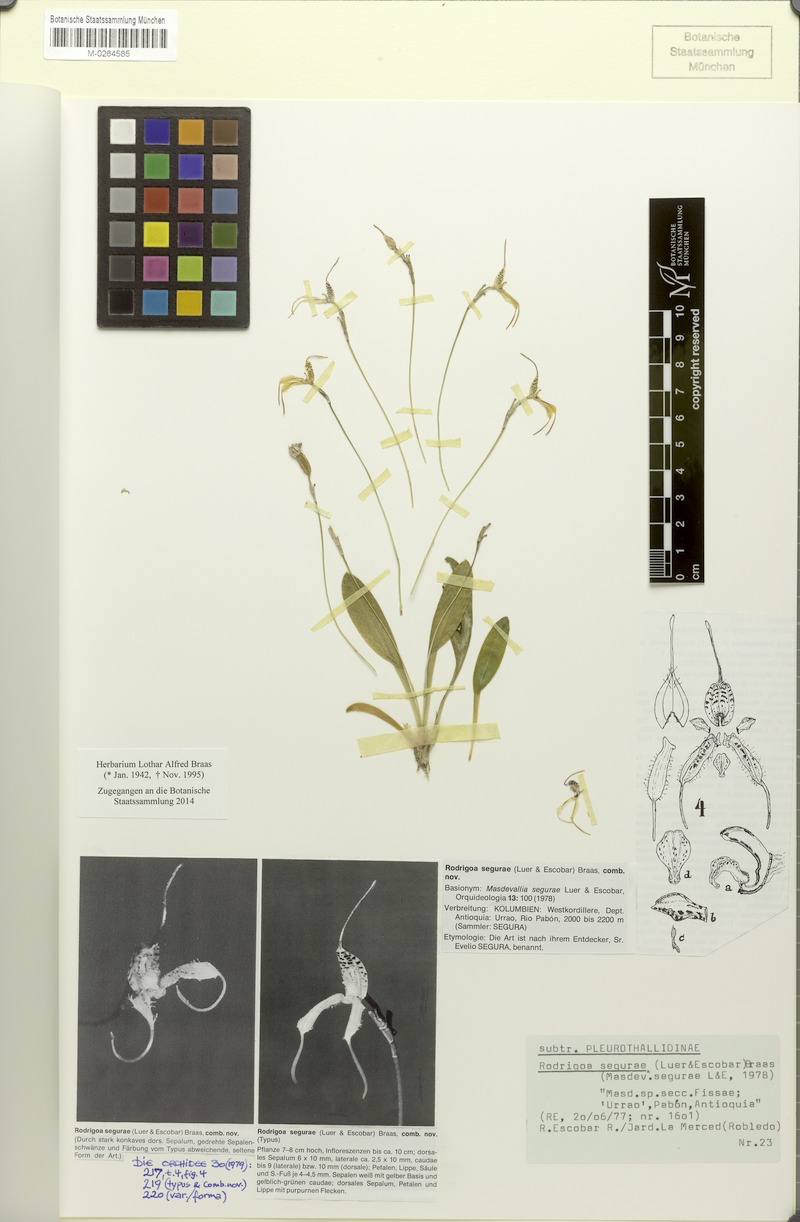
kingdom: Plantae
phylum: Tracheophyta
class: Liliopsida
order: Asparagales
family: Orchidaceae
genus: Masdevallia
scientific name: Masdevallia segurae
